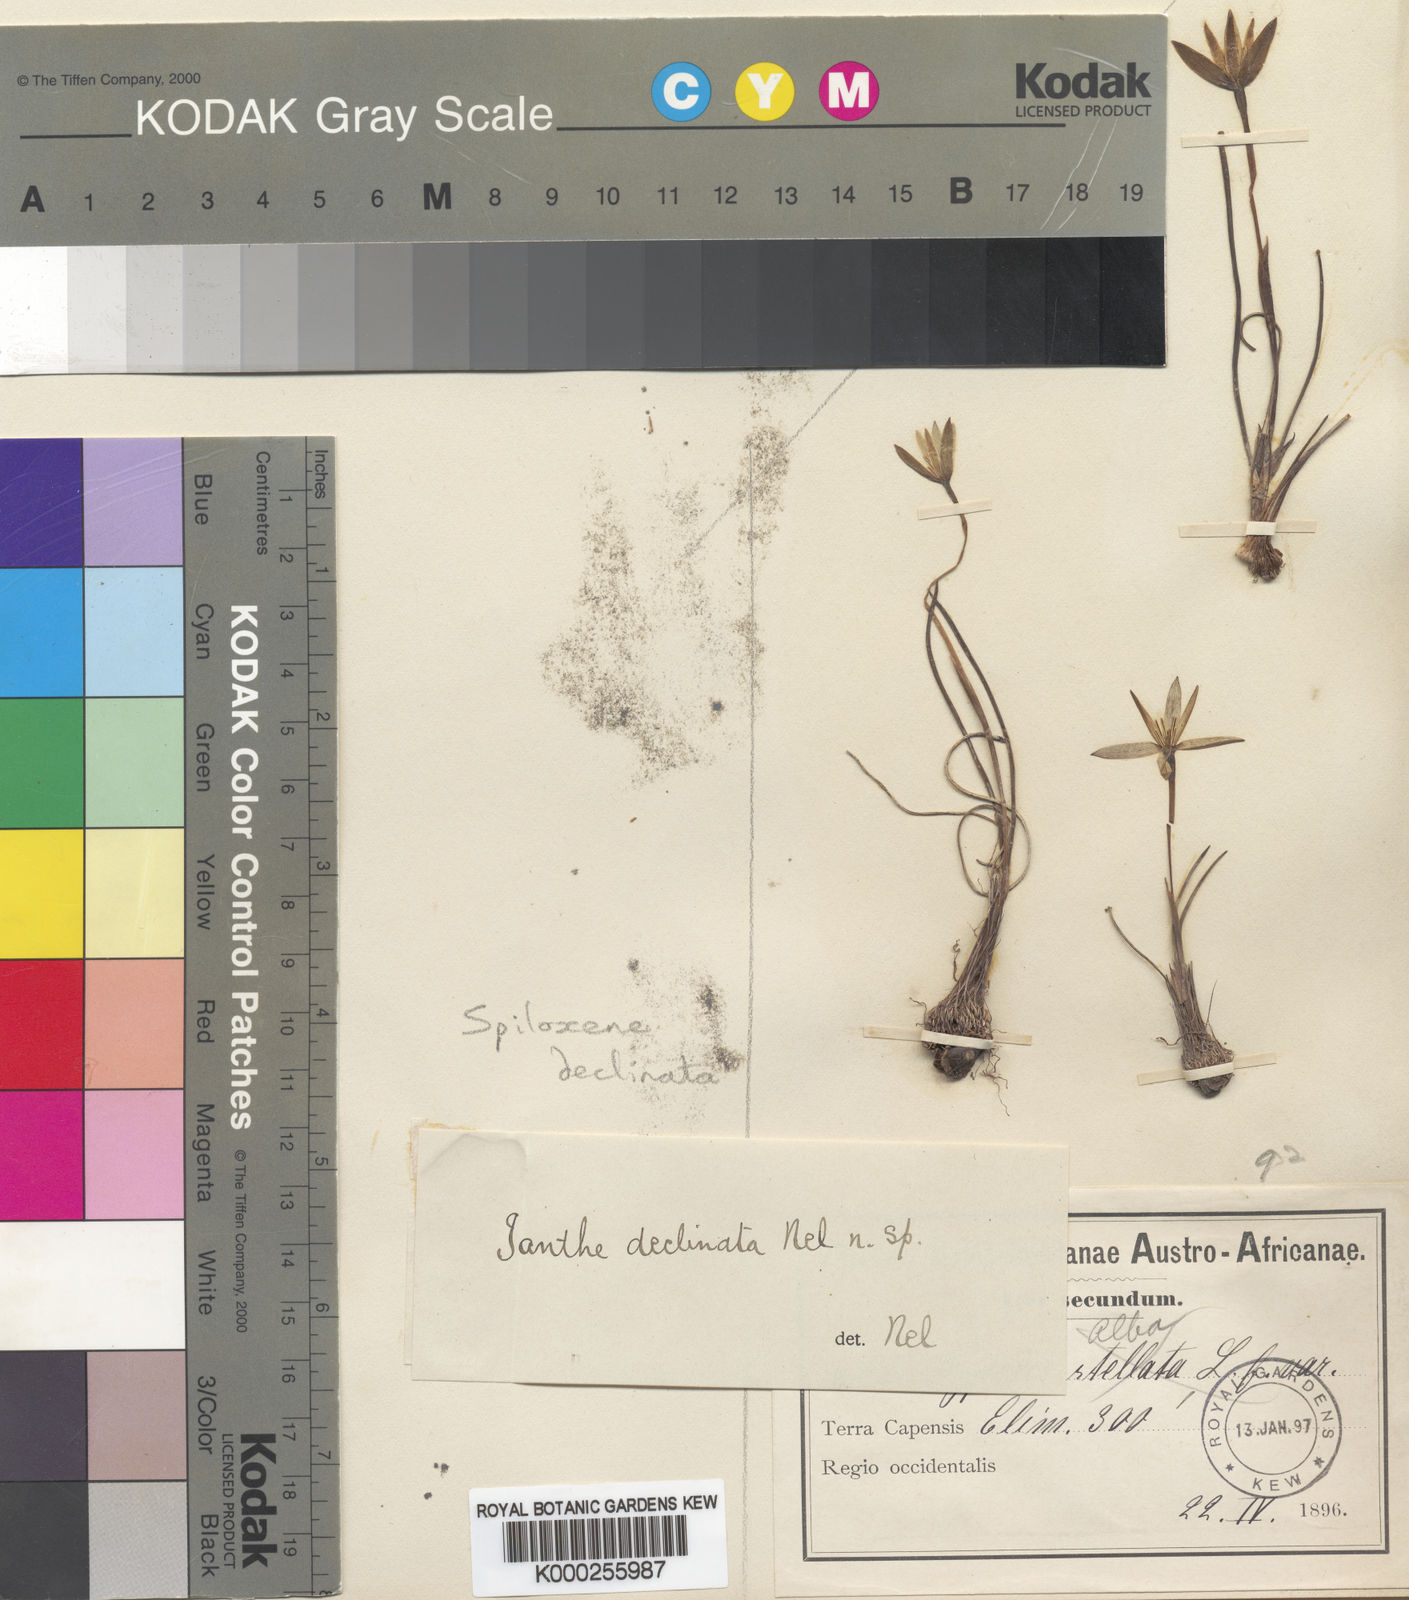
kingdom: Plantae
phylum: Tracheophyta
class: Liliopsida
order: Asparagales
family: Hypoxidaceae
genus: Pauridia
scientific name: Pauridia curculigoides
